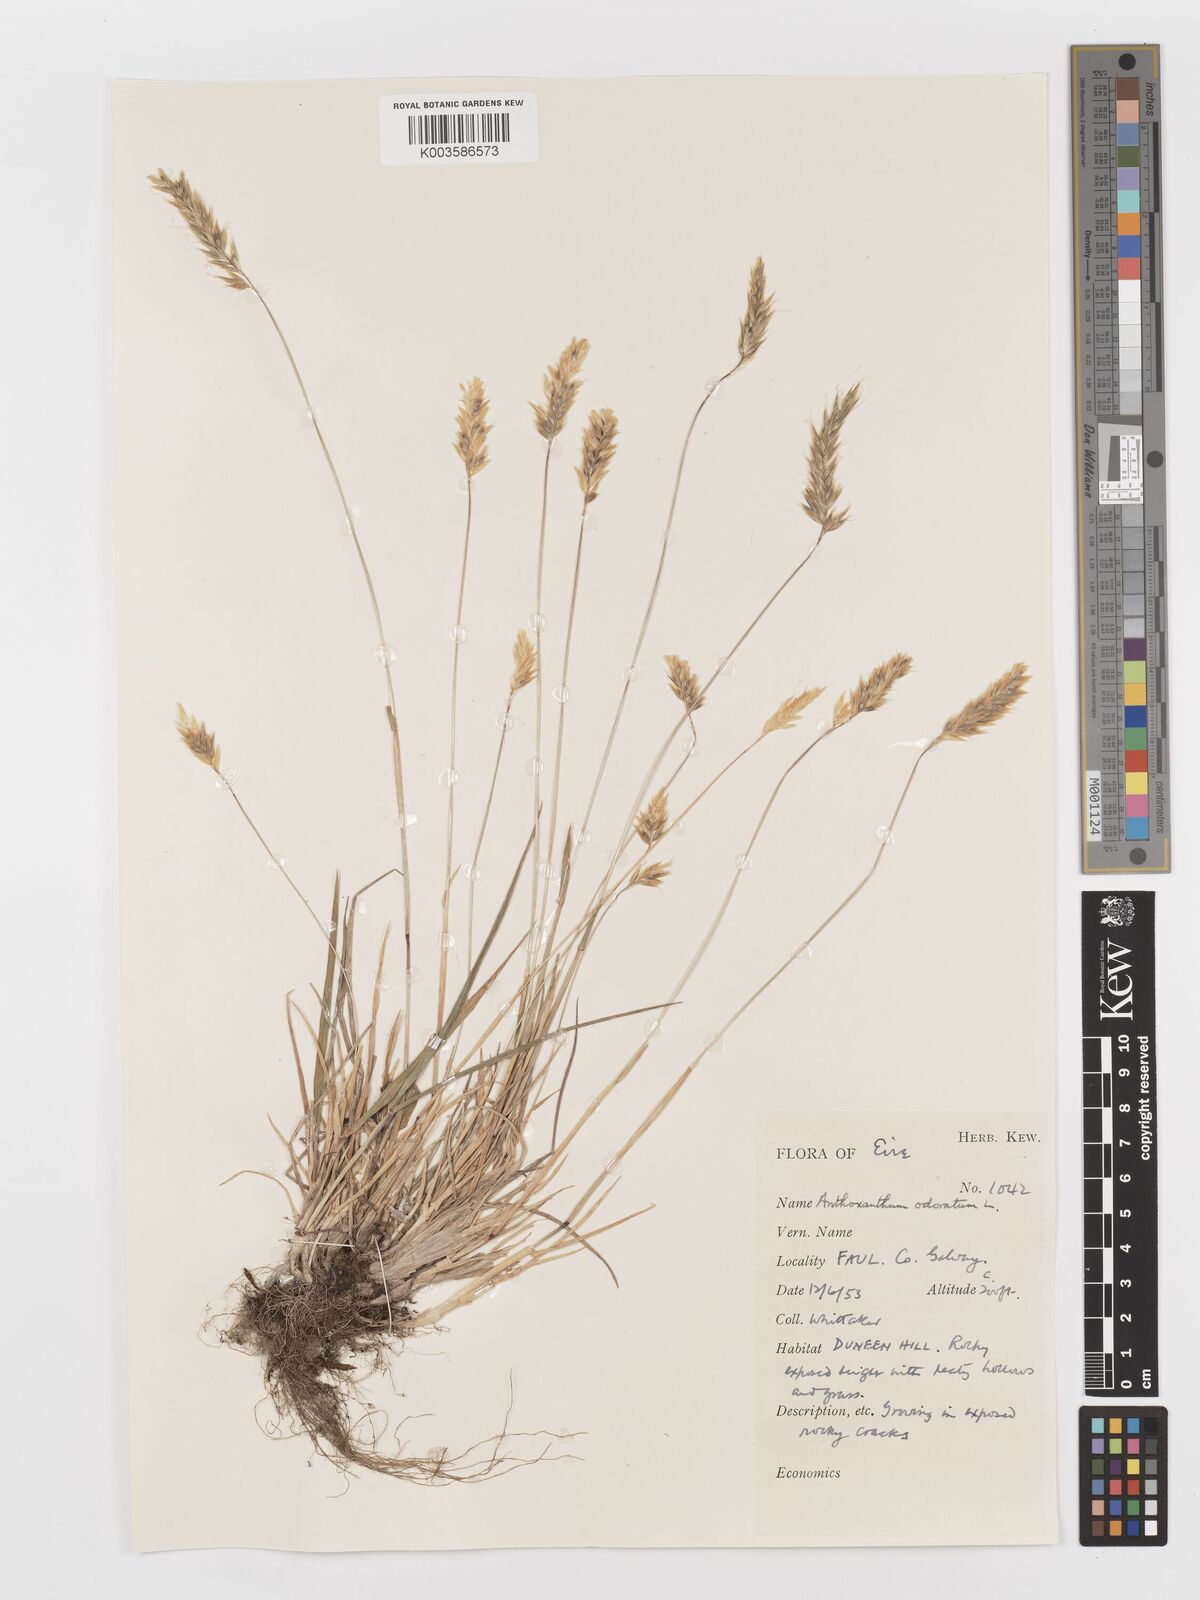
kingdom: Plantae
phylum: Tracheophyta
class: Liliopsida
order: Poales
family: Poaceae
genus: Anthoxanthum
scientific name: Anthoxanthum odoratum
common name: Sweet vernalgrass
